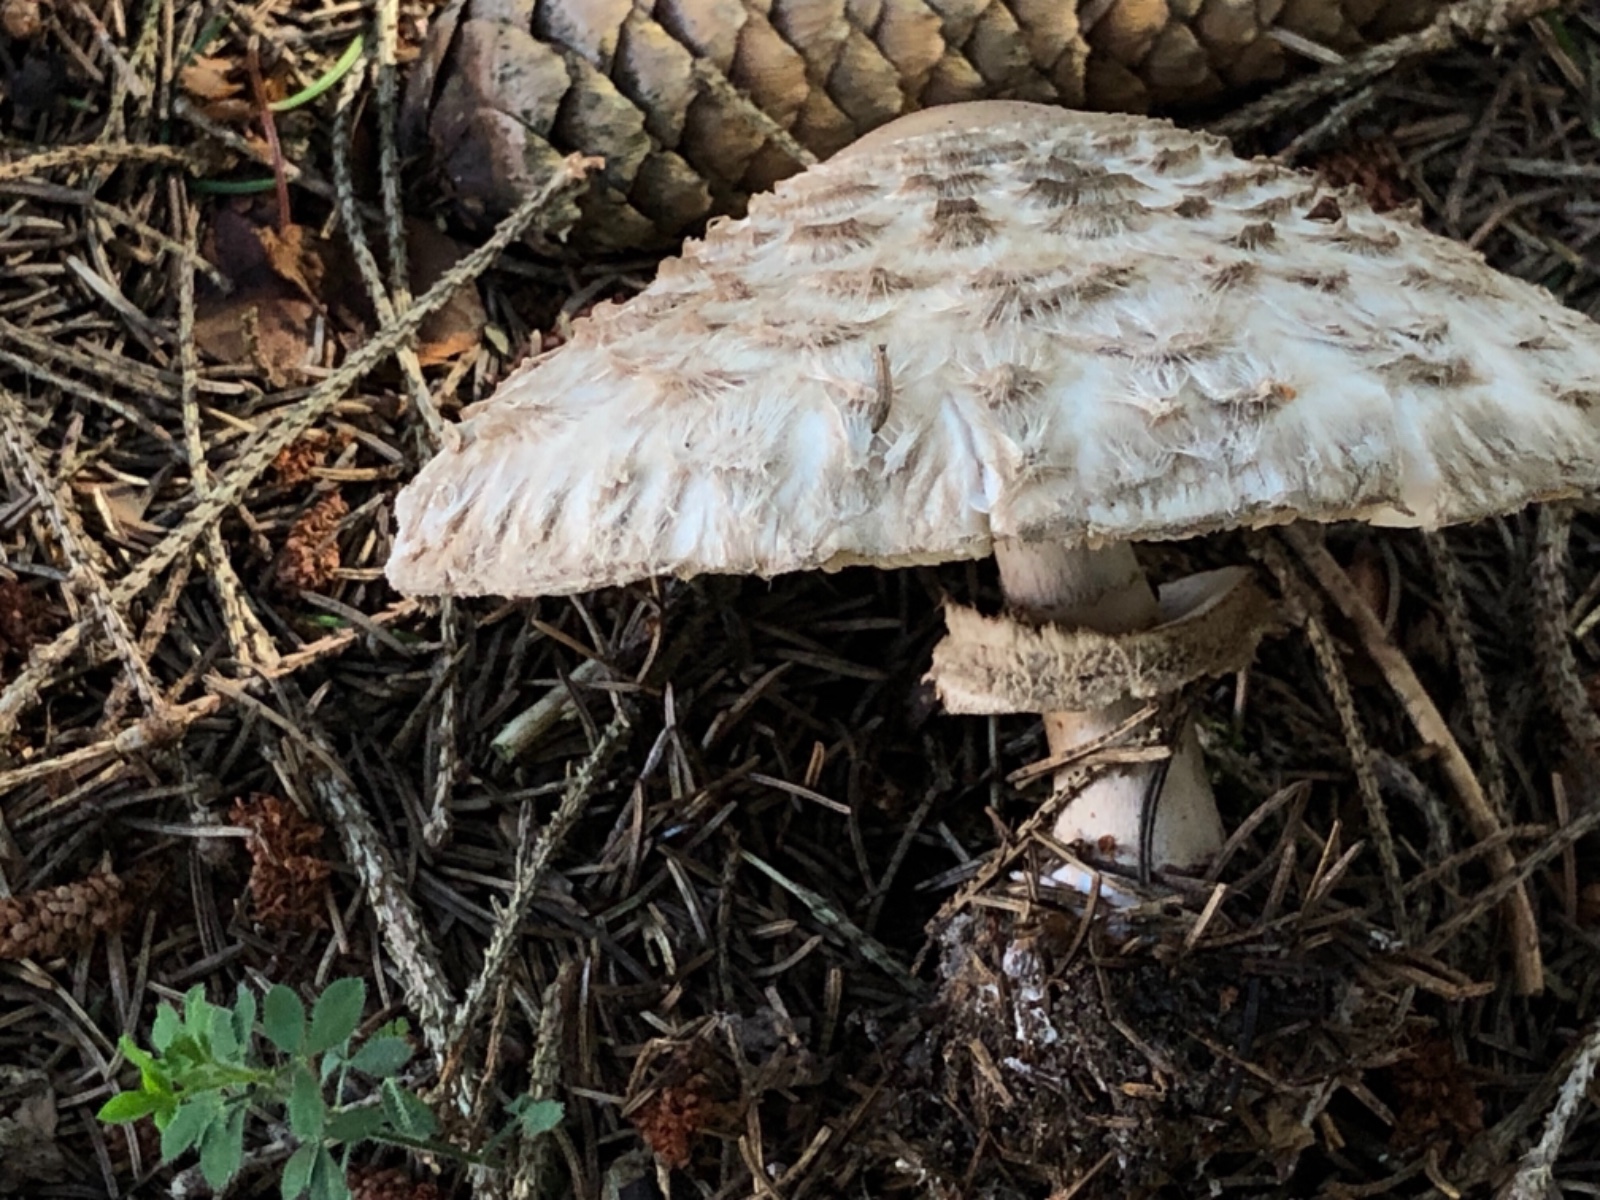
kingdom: Fungi
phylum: Basidiomycota
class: Agaricomycetes
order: Agaricales
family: Agaricaceae
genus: Chlorophyllum
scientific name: Chlorophyllum olivieri
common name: almindelig rabarberhat
